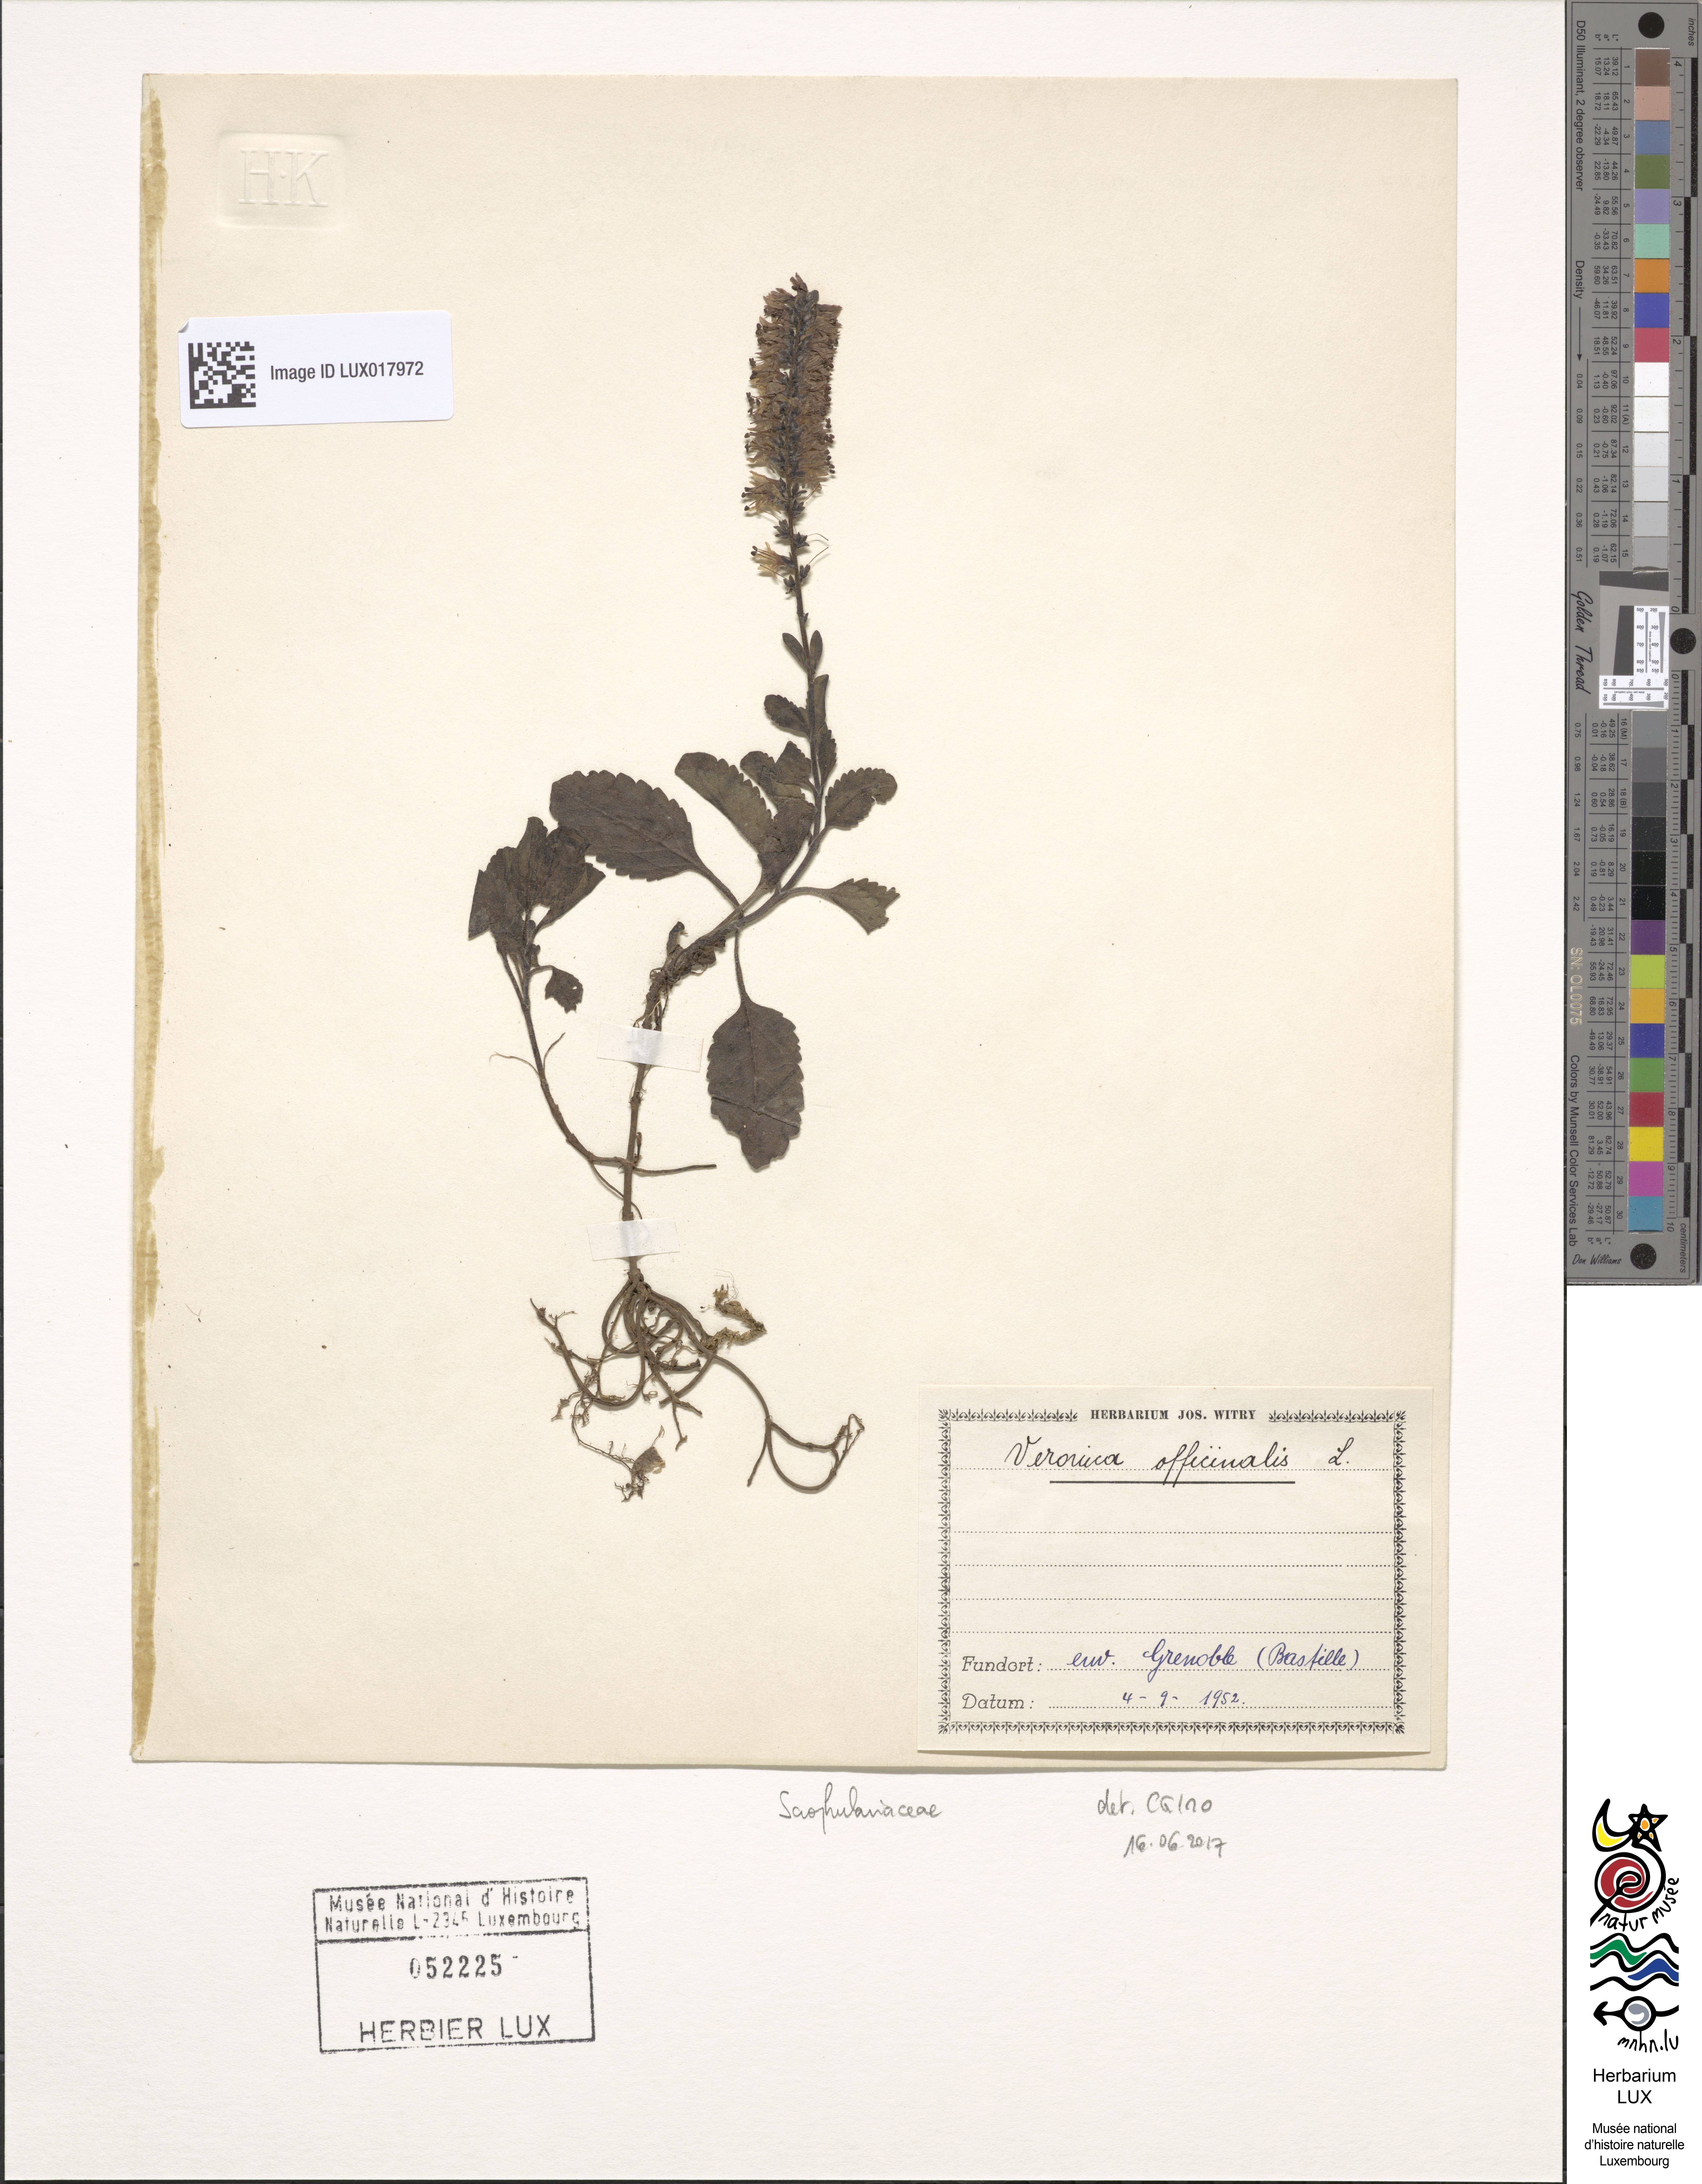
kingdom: Plantae
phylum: Tracheophyta
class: Magnoliopsida
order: Lamiales
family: Plantaginaceae
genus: Veronica
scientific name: Veronica officinalis
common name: Common speedwell
